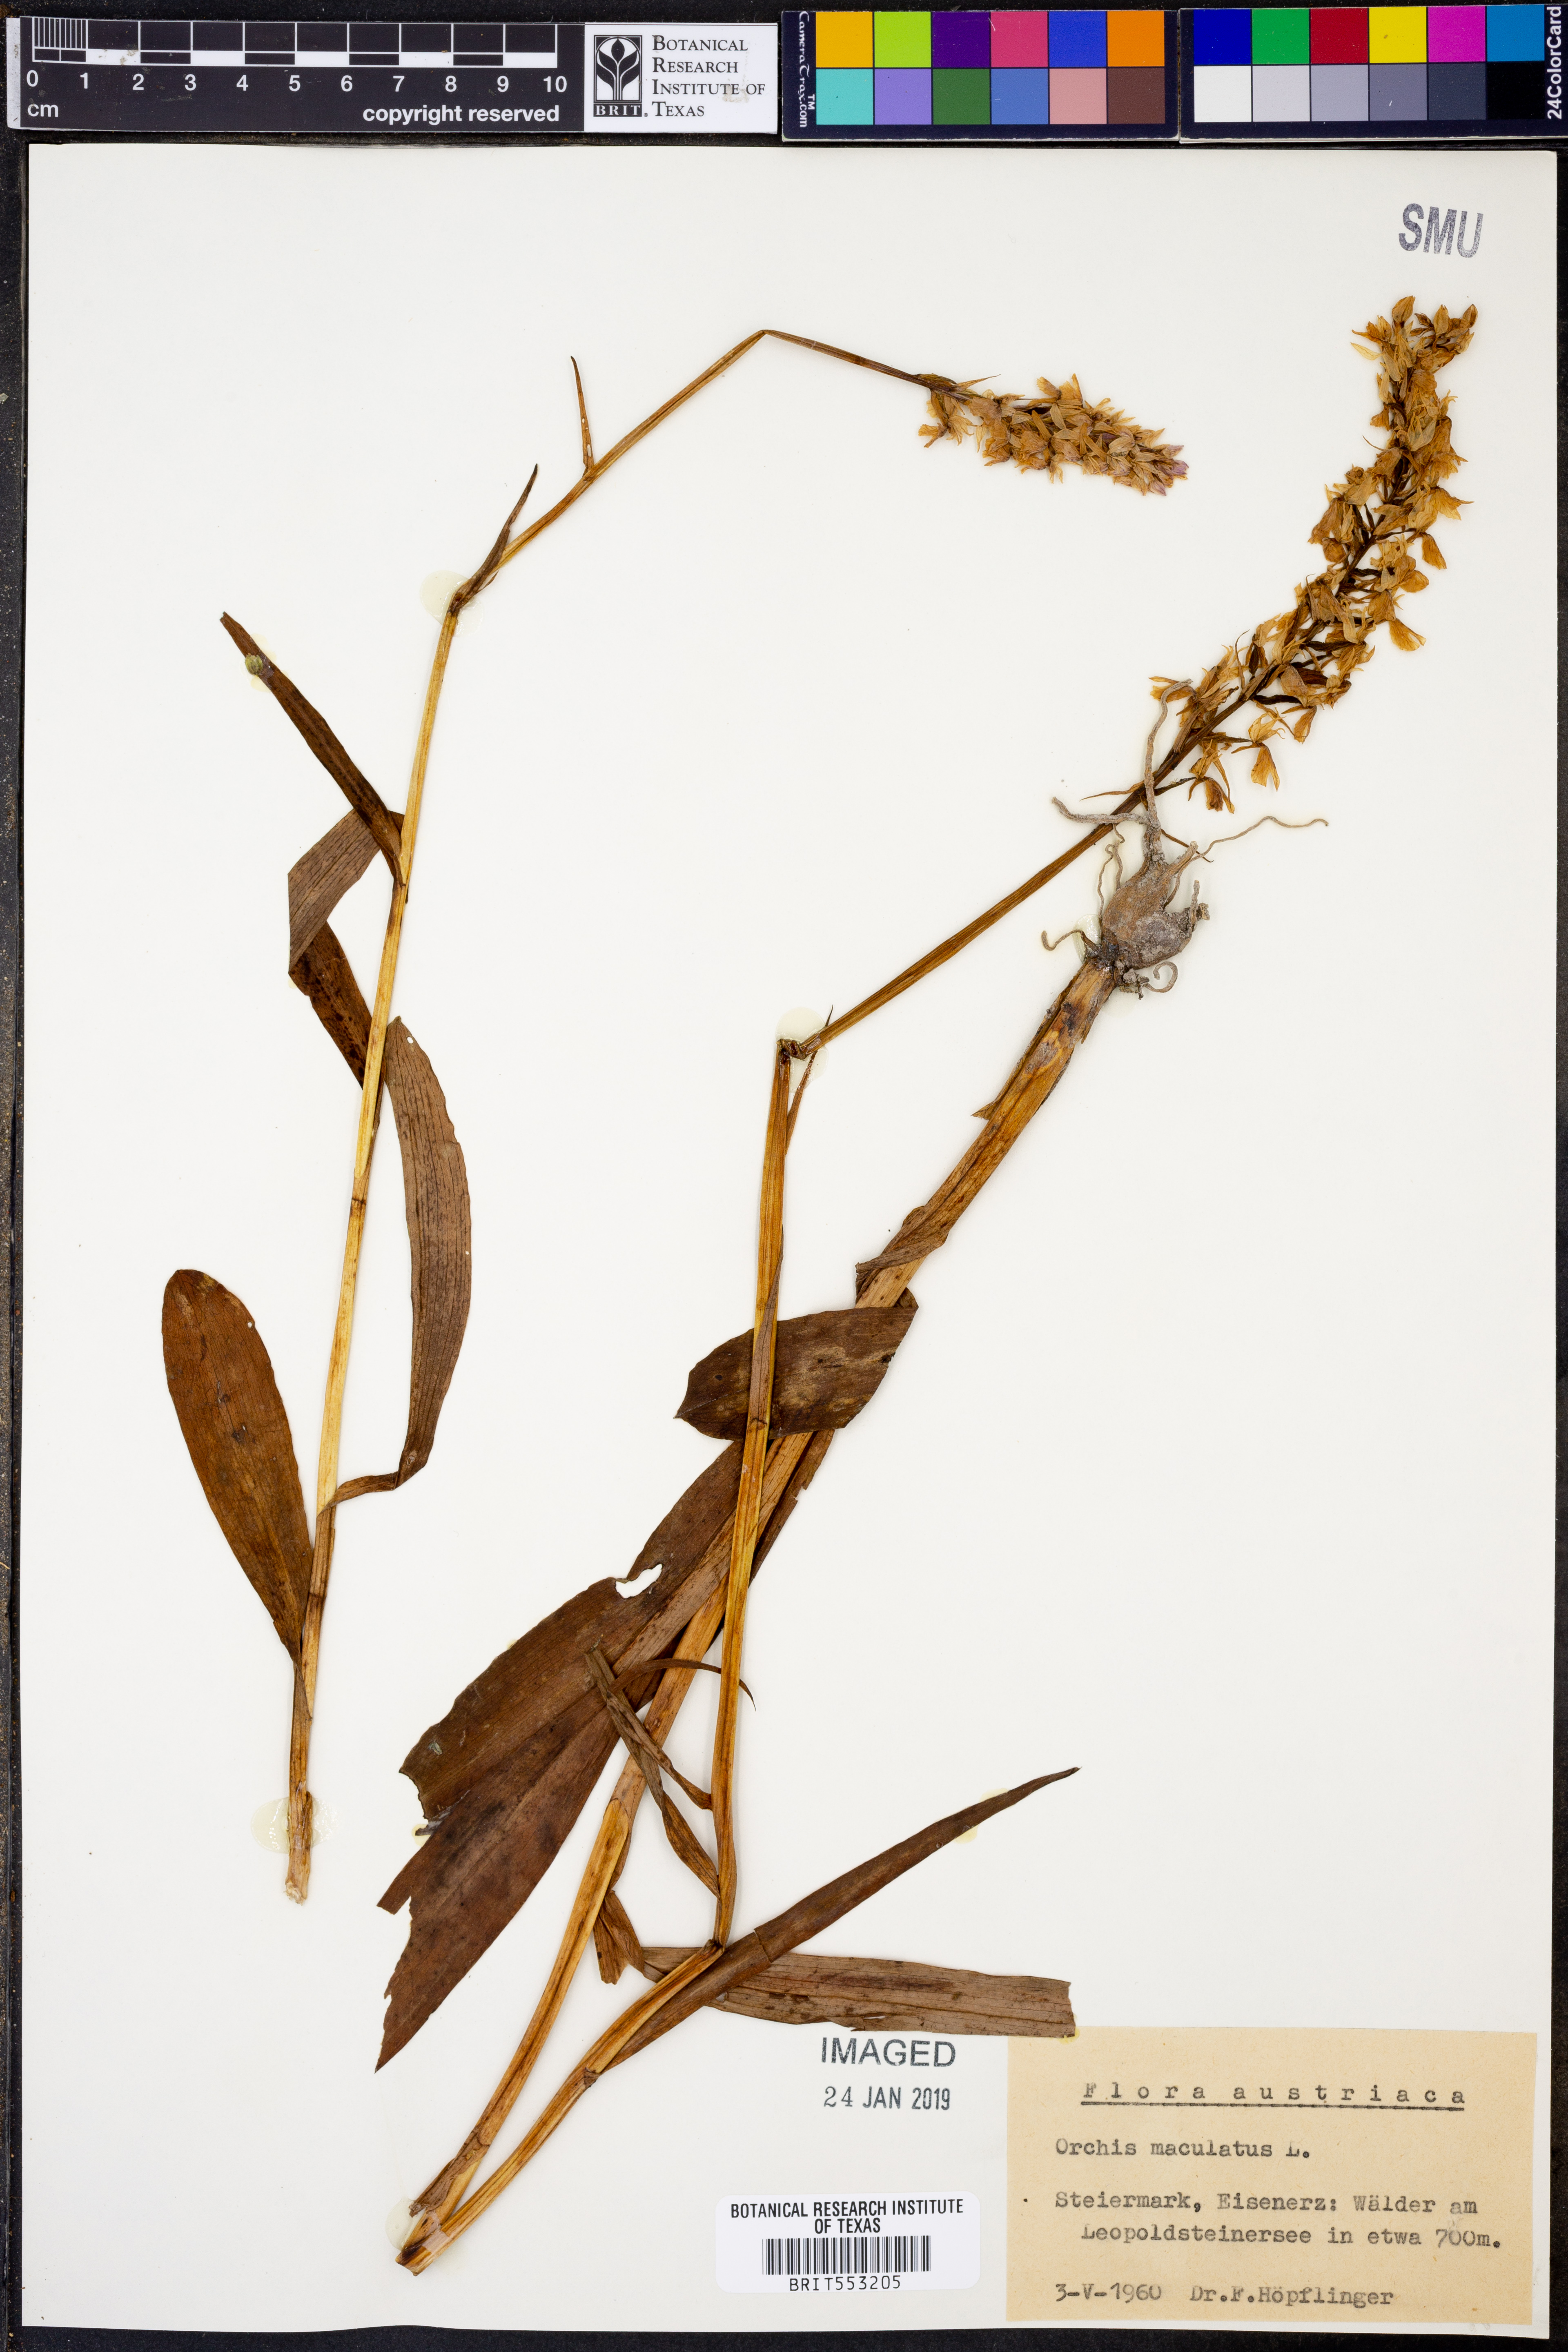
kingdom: Plantae
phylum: Tracheophyta
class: Liliopsida
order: Asparagales
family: Orchidaceae
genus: Dactylorhiza
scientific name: Dactylorhiza maculata
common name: Heath spotted-orchid
